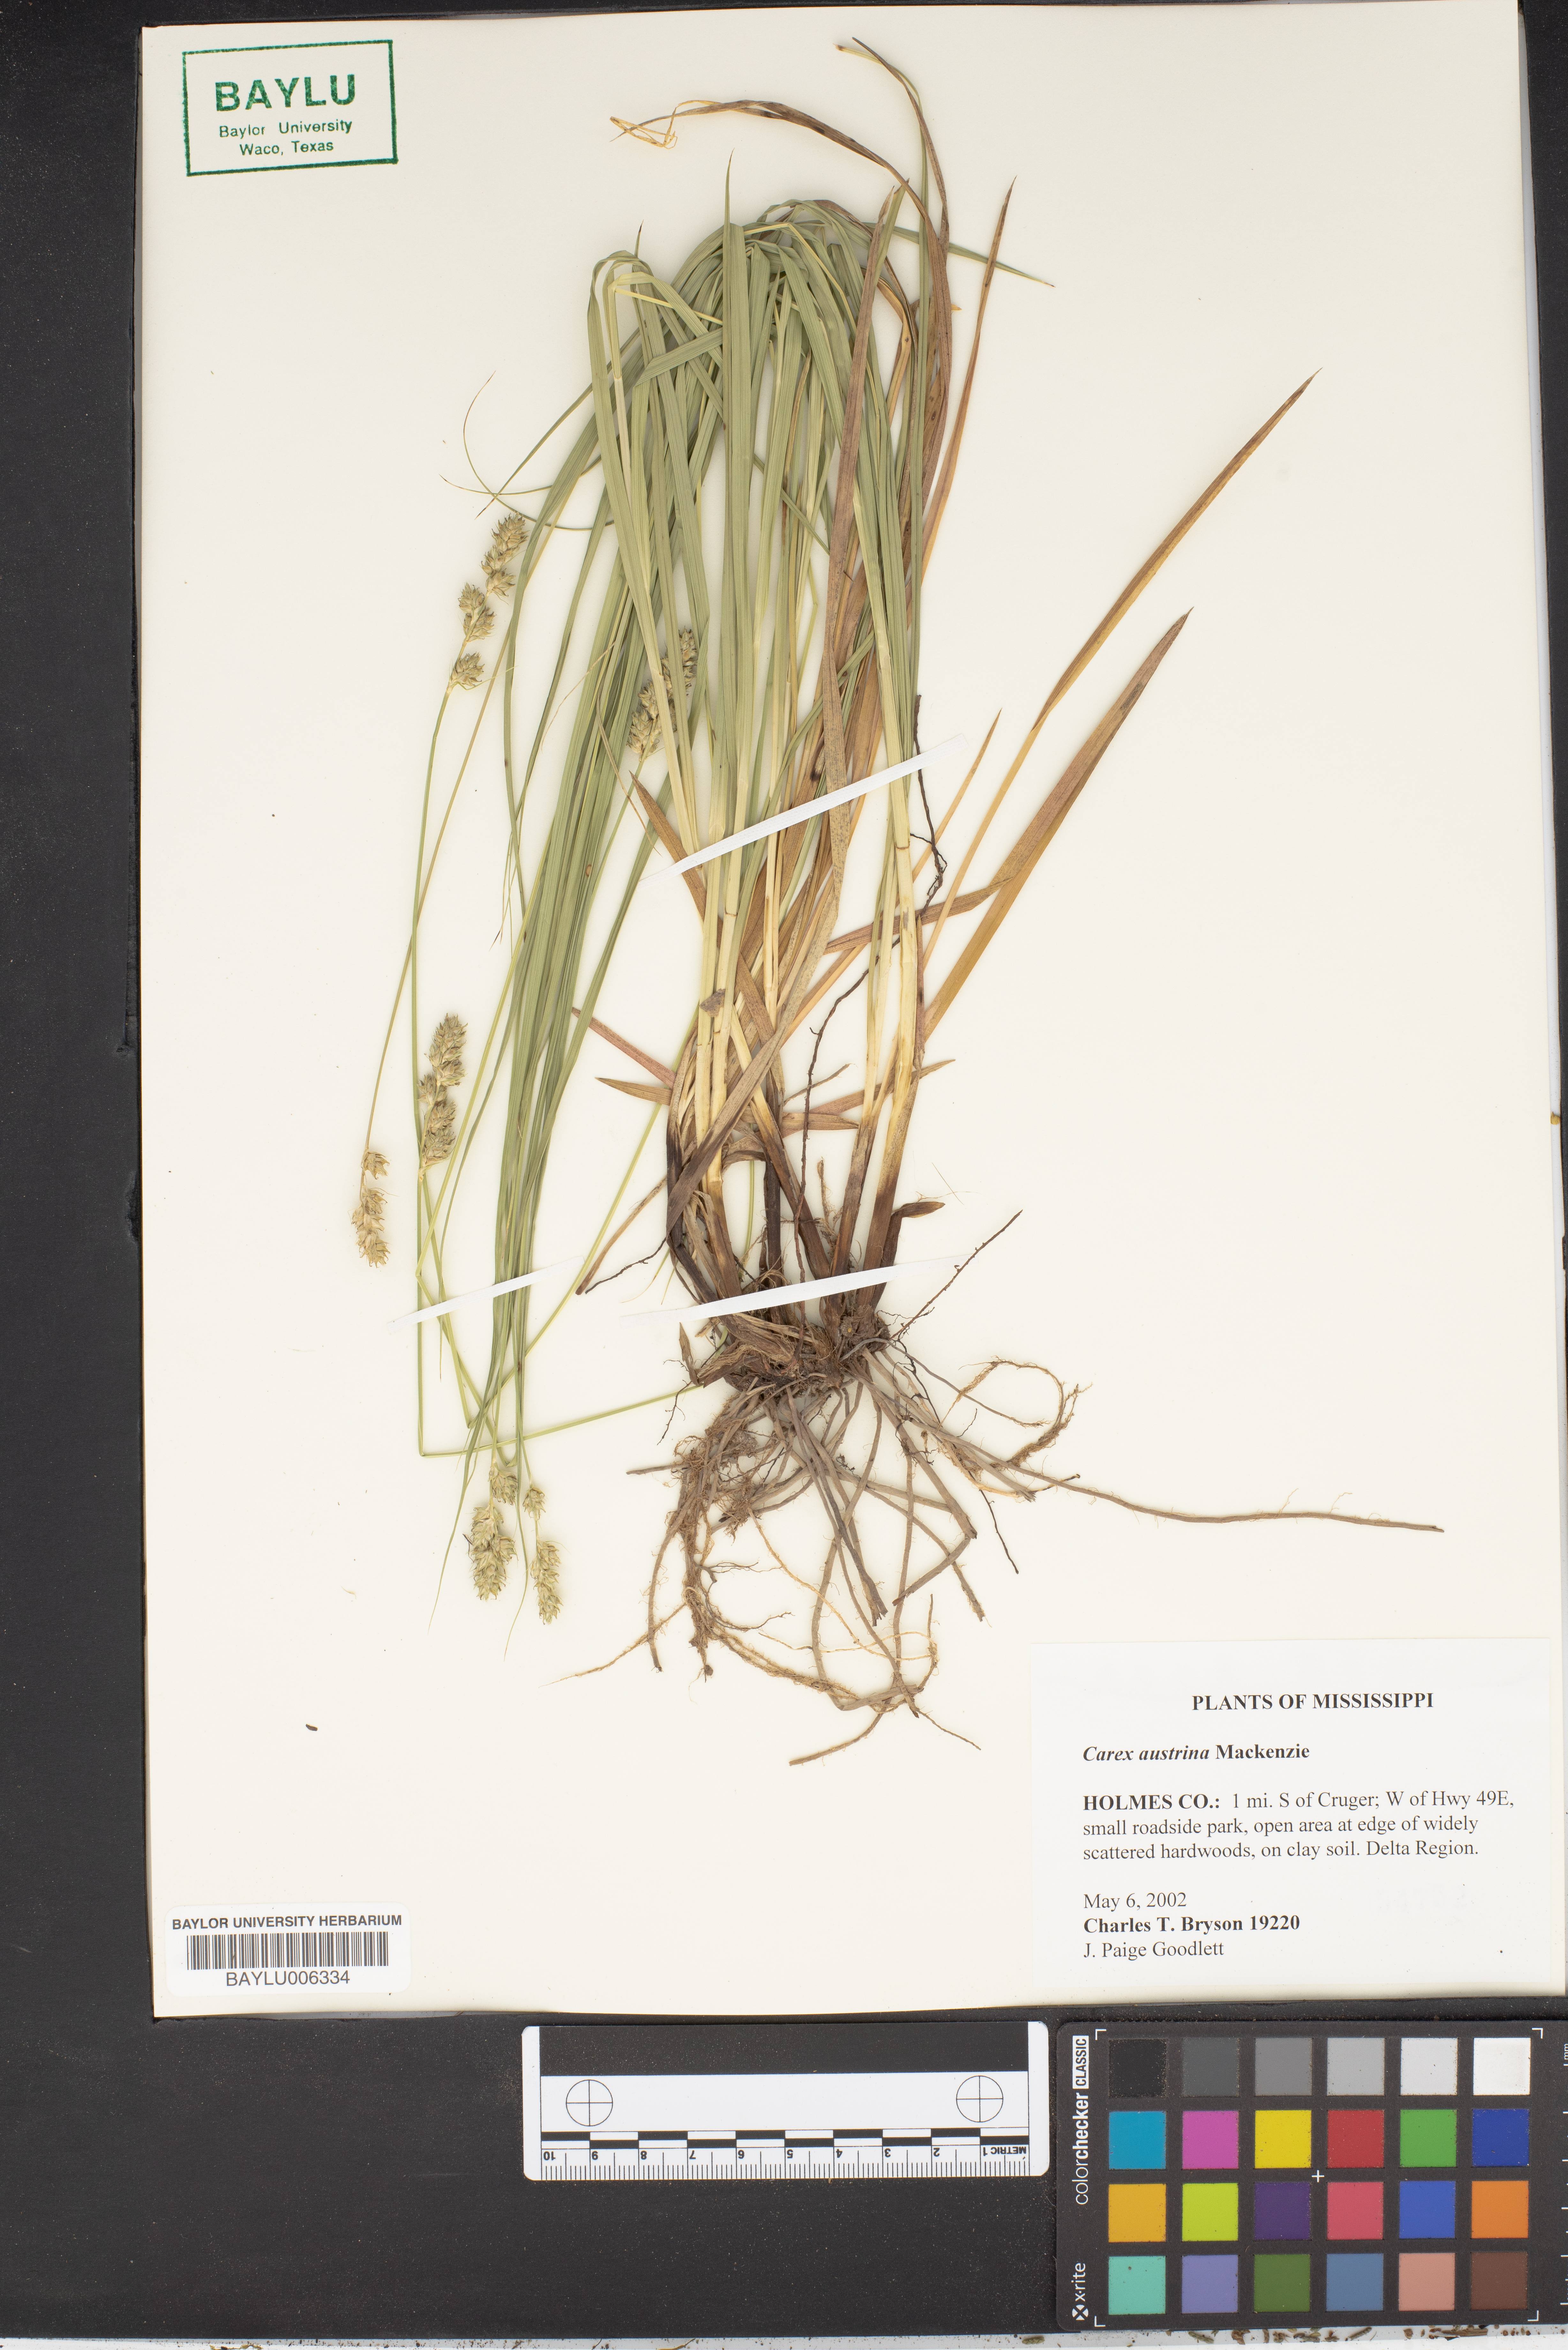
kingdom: Plantae
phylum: Tracheophyta
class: Liliopsida
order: Poales
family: Cyperaceae
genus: Carex
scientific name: Carex austrina
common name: Southern sedge
